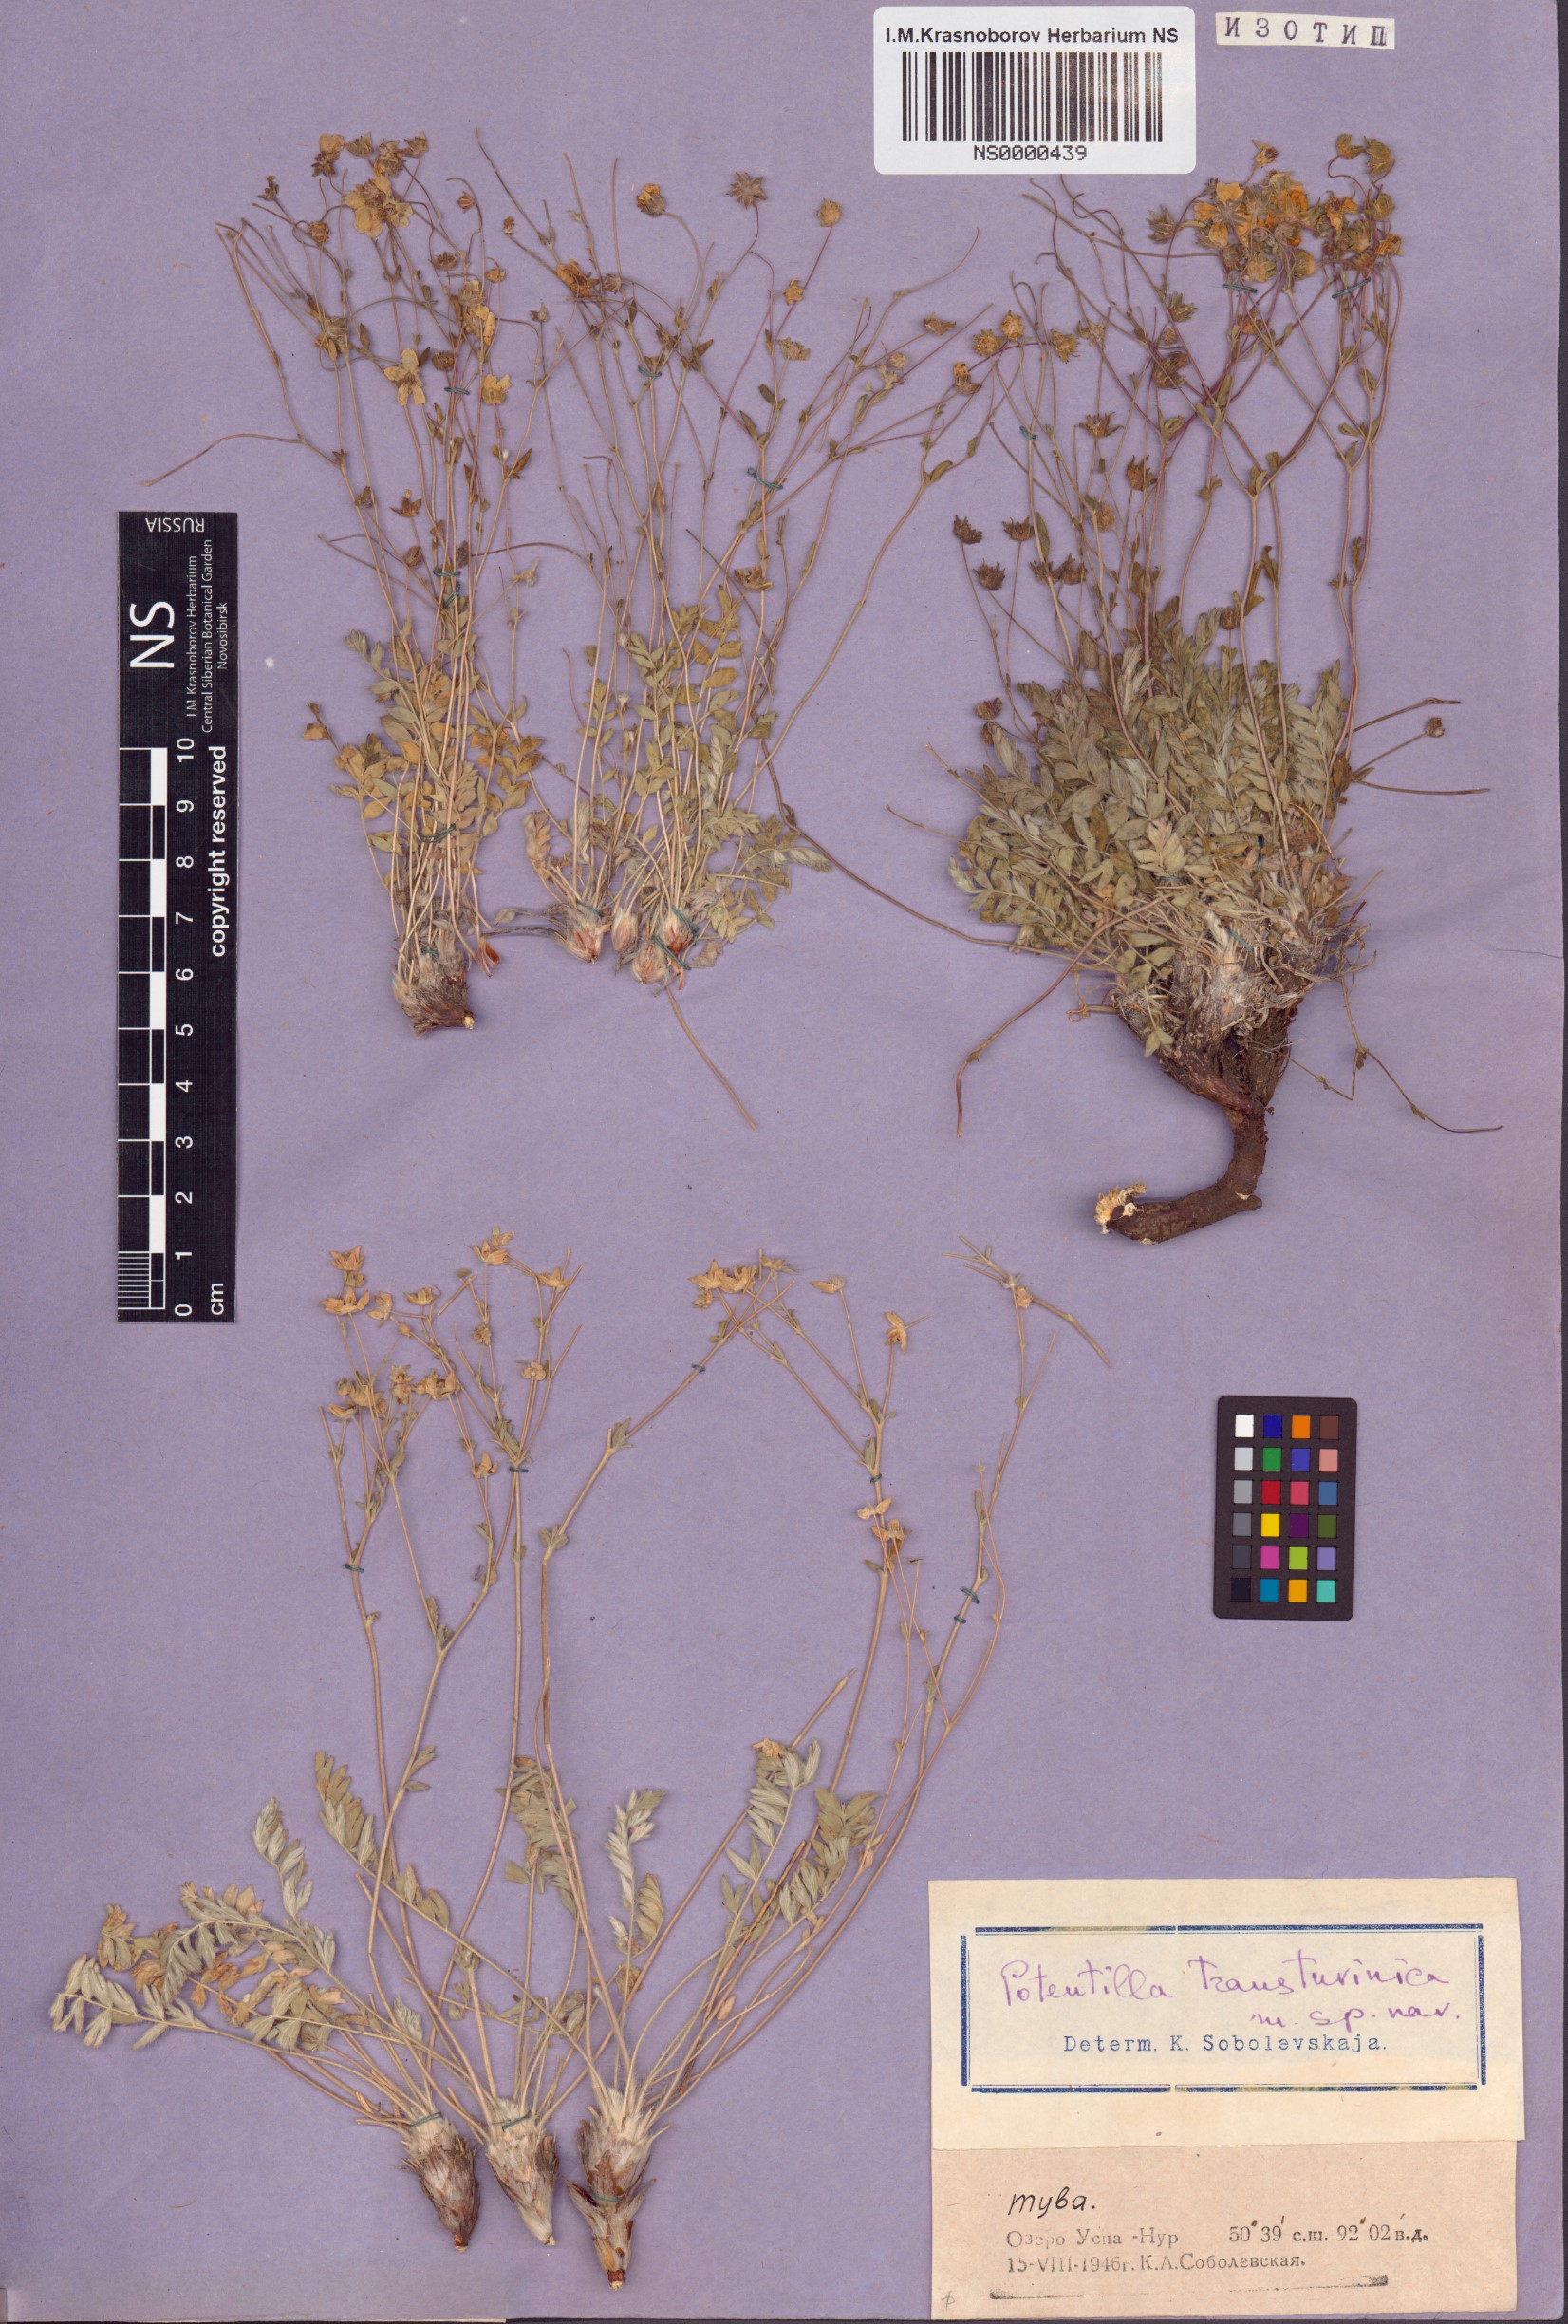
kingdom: Plantae
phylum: Tracheophyta
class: Magnoliopsida
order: Rosales
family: Rosaceae
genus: Potentilla
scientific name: Potentilla astragalifolia
